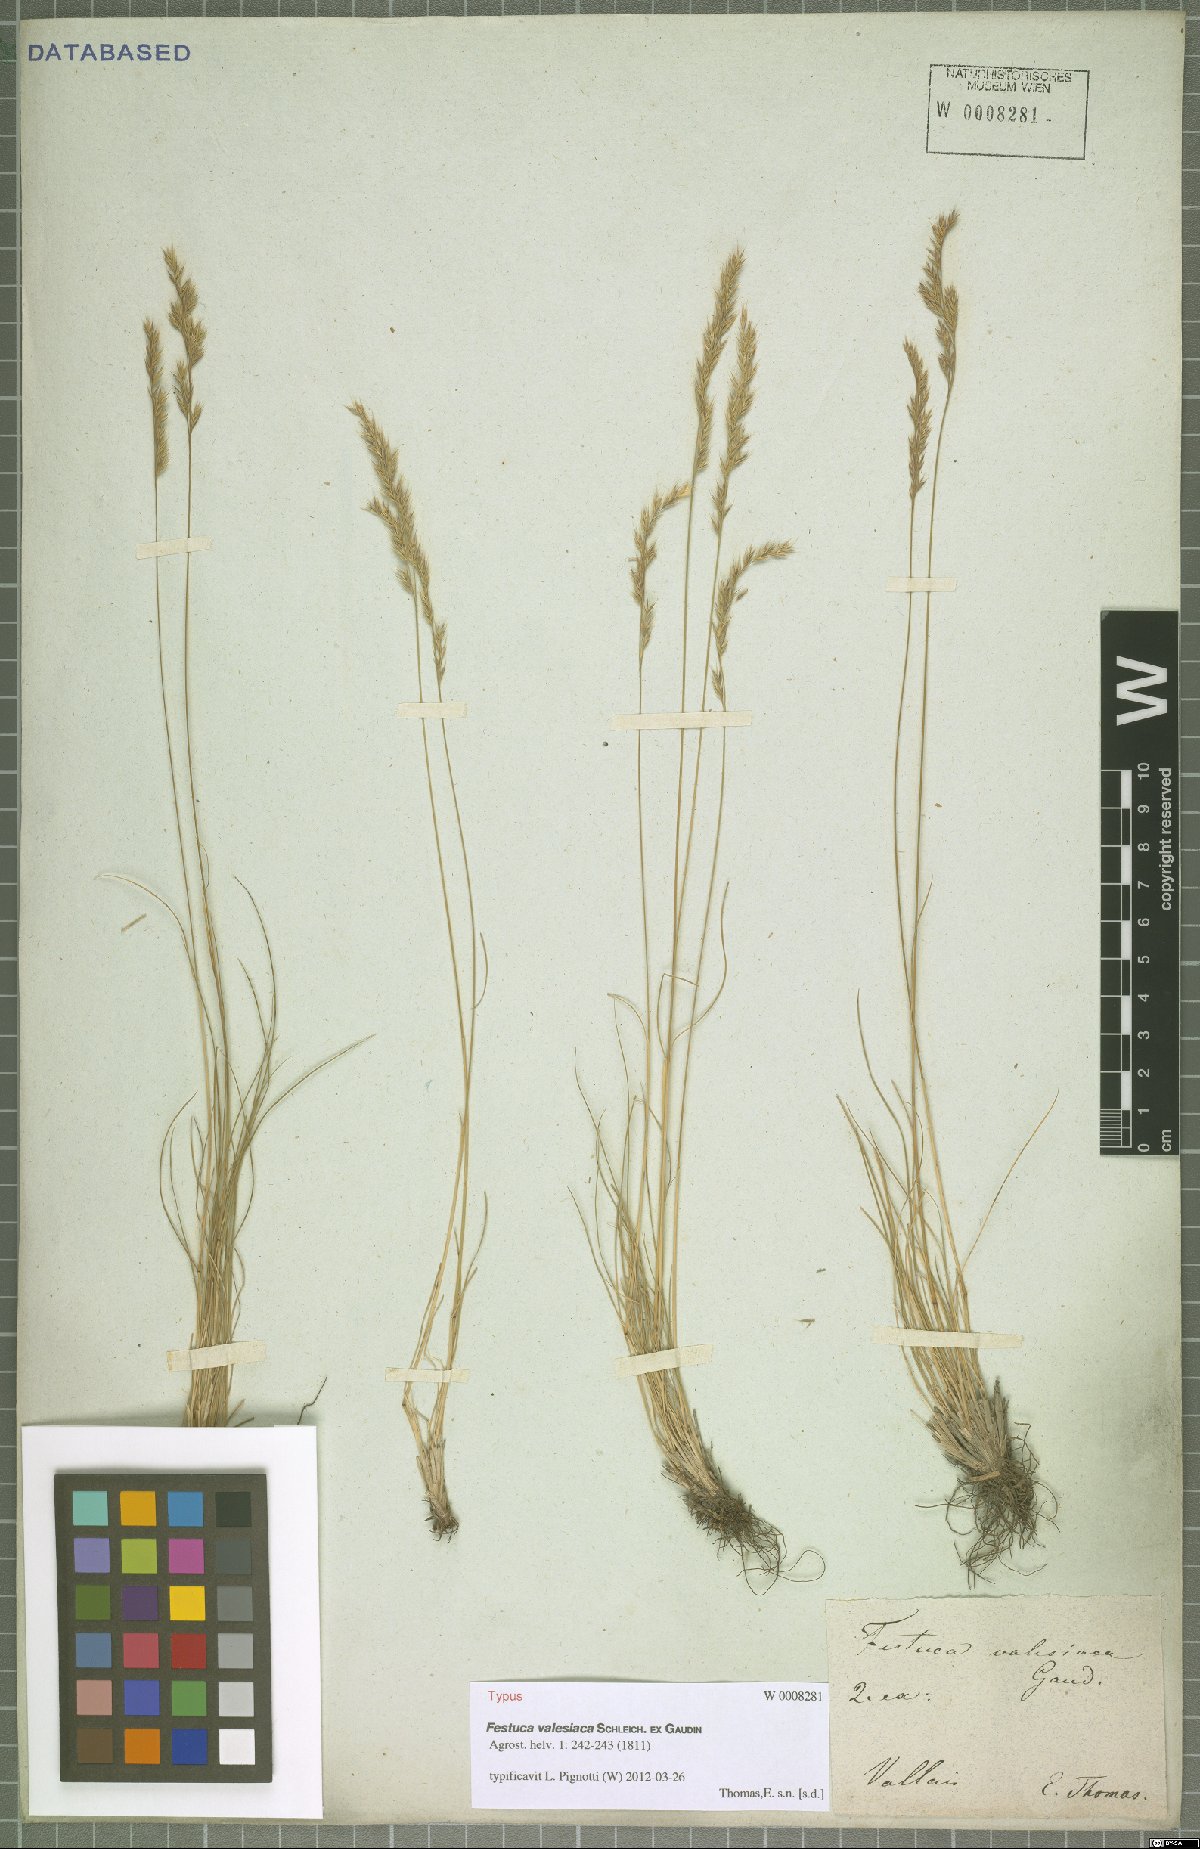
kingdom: Plantae
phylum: Tracheophyta
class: Liliopsida
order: Poales
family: Poaceae
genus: Festuca
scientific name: Festuca valesiaca
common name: Volga fescue
